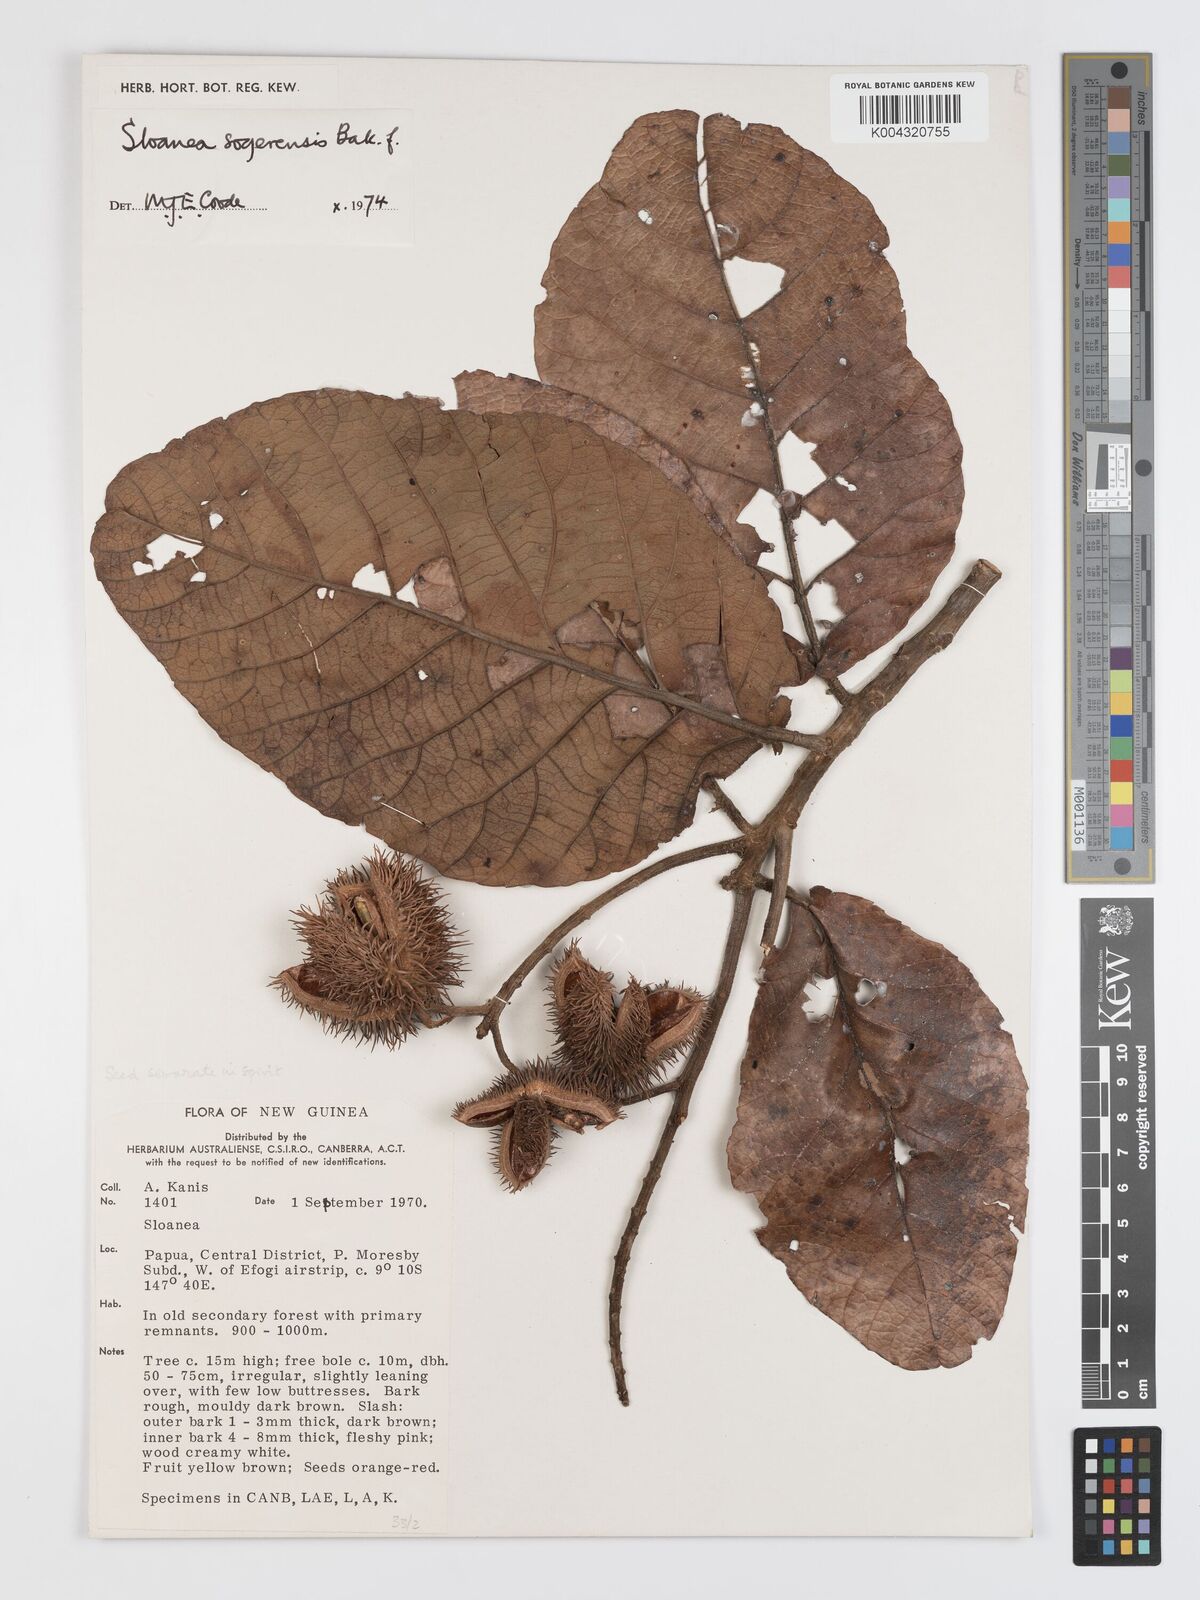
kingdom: Plantae
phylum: Tracheophyta
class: Magnoliopsida
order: Oxalidales
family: Elaeocarpaceae
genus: Sloanea
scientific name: Sloanea sogerensis
